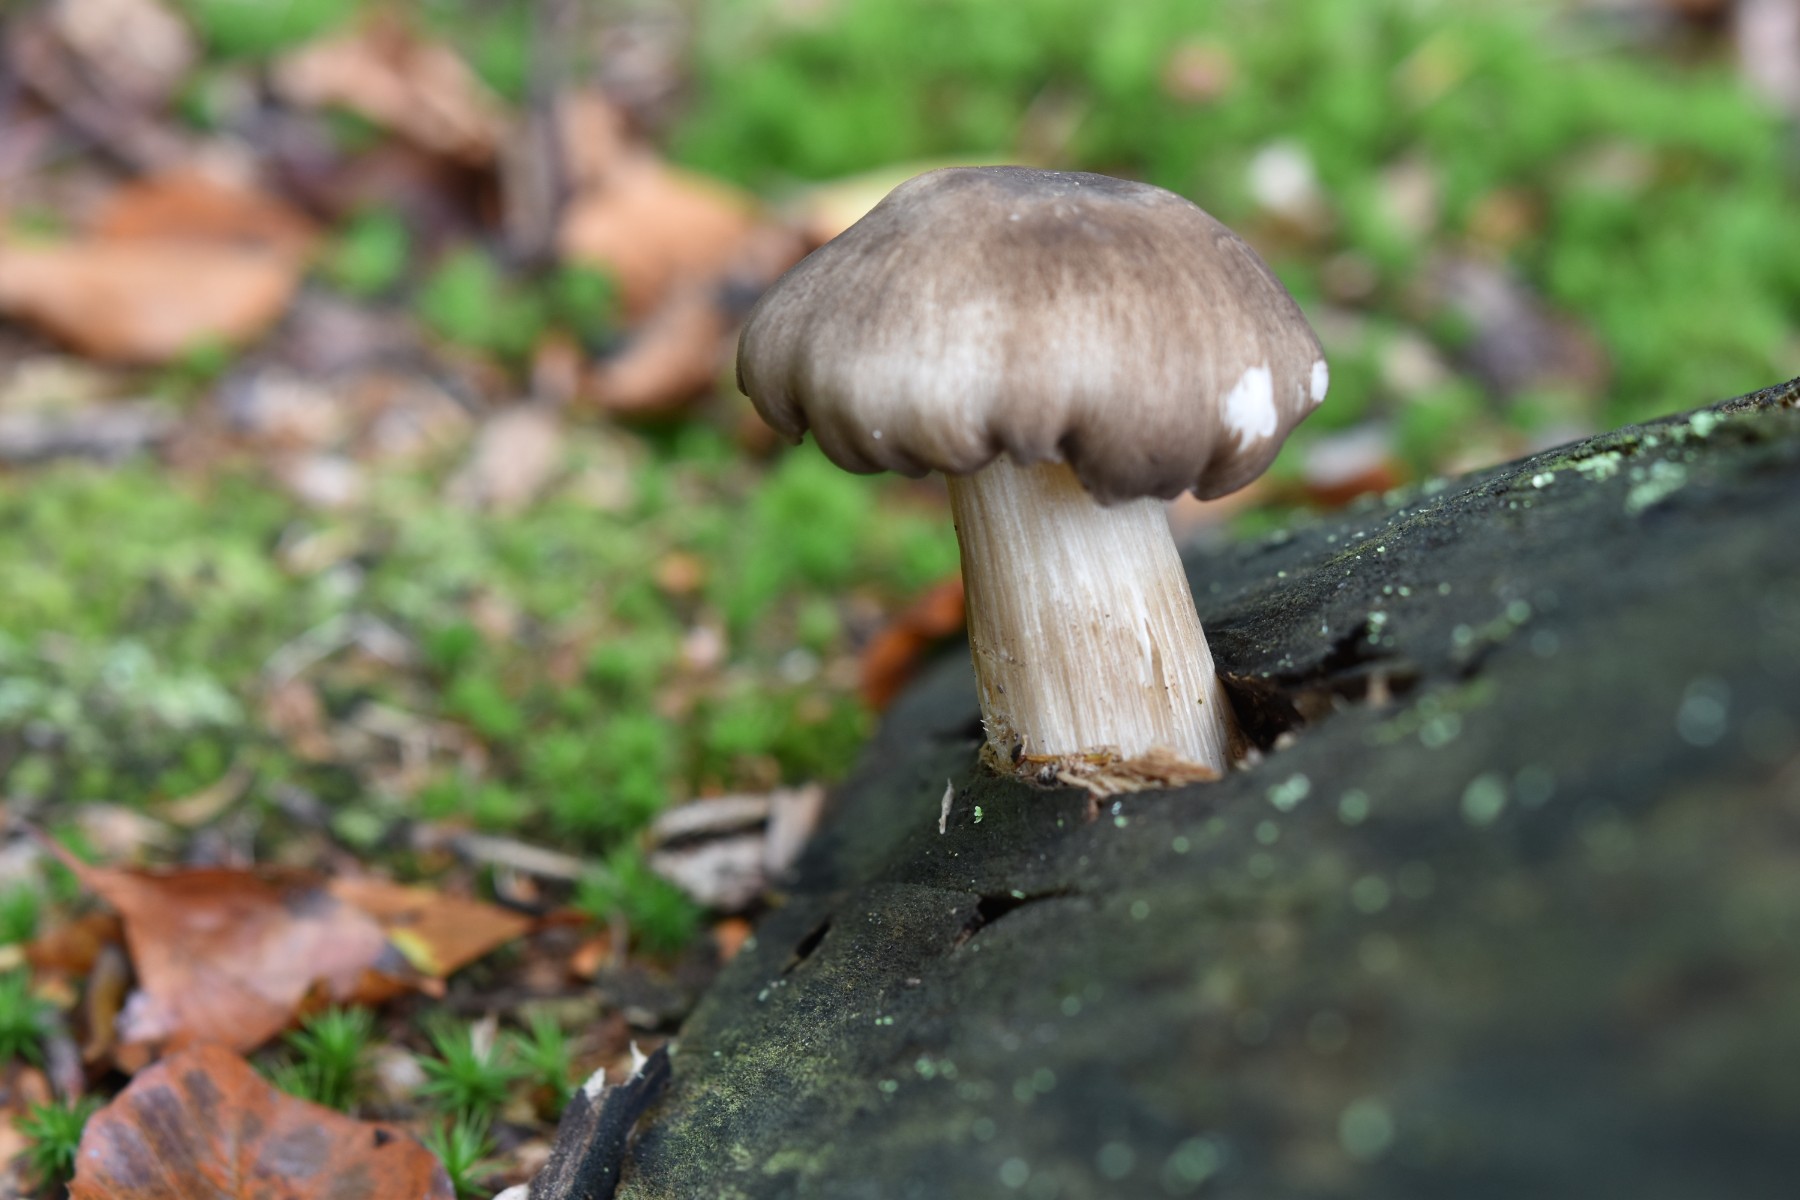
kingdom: Fungi
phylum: Basidiomycota
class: Agaricomycetes
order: Agaricales
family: Pluteaceae
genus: Pluteus
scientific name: Pluteus cervinus
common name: sodfarvet skærmhat
